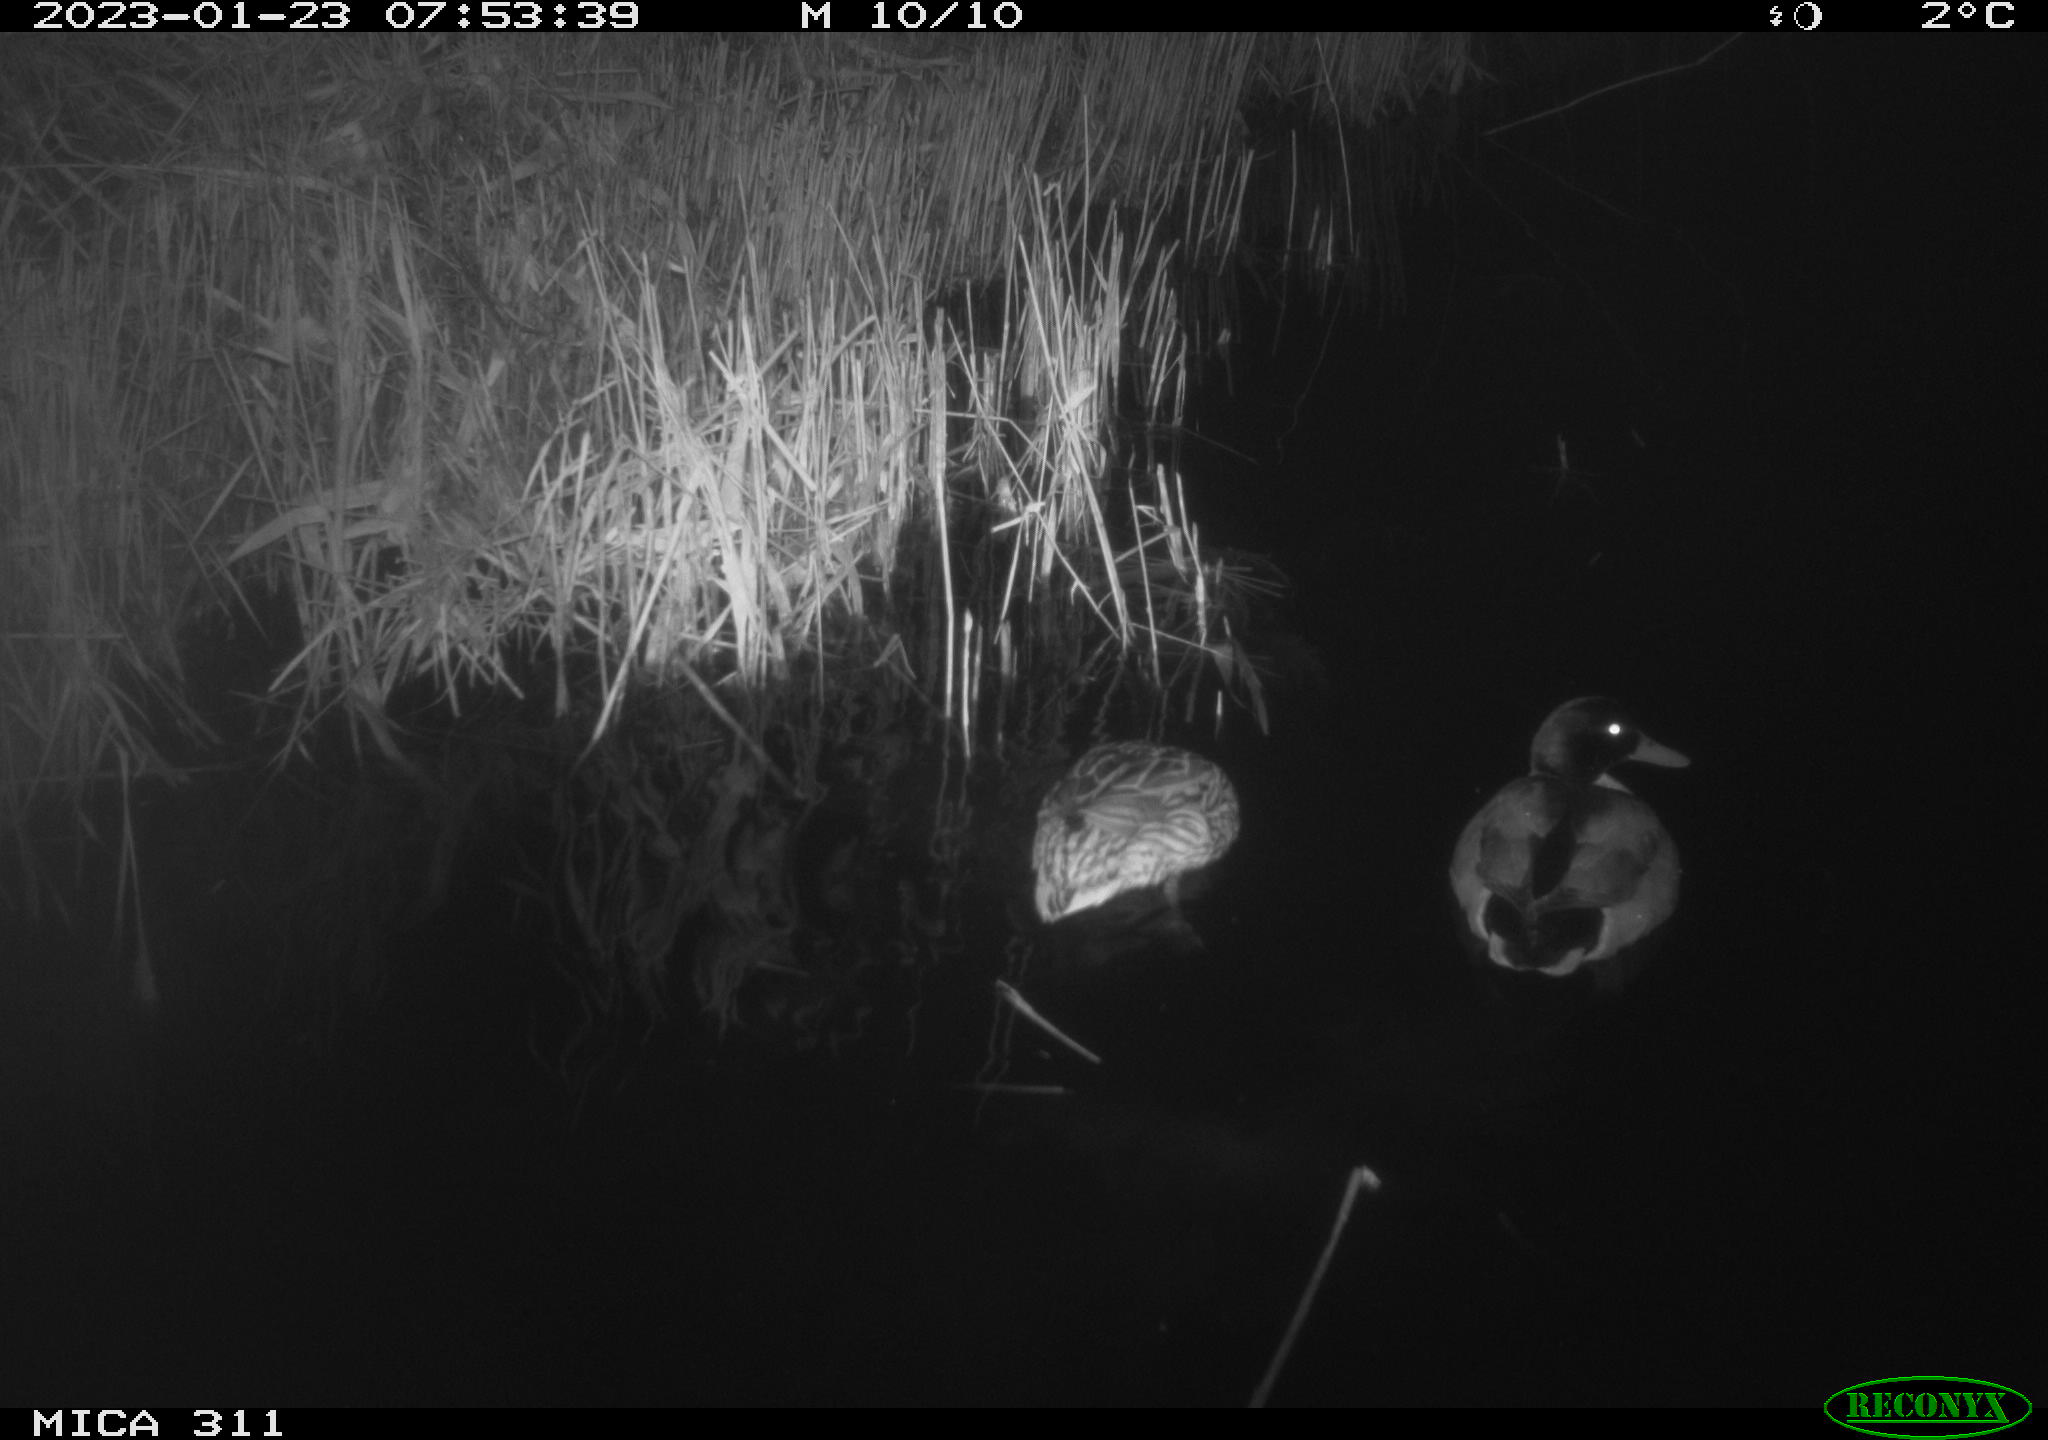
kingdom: Animalia
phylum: Chordata
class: Aves
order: Anseriformes
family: Anatidae
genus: Anas
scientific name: Anas
